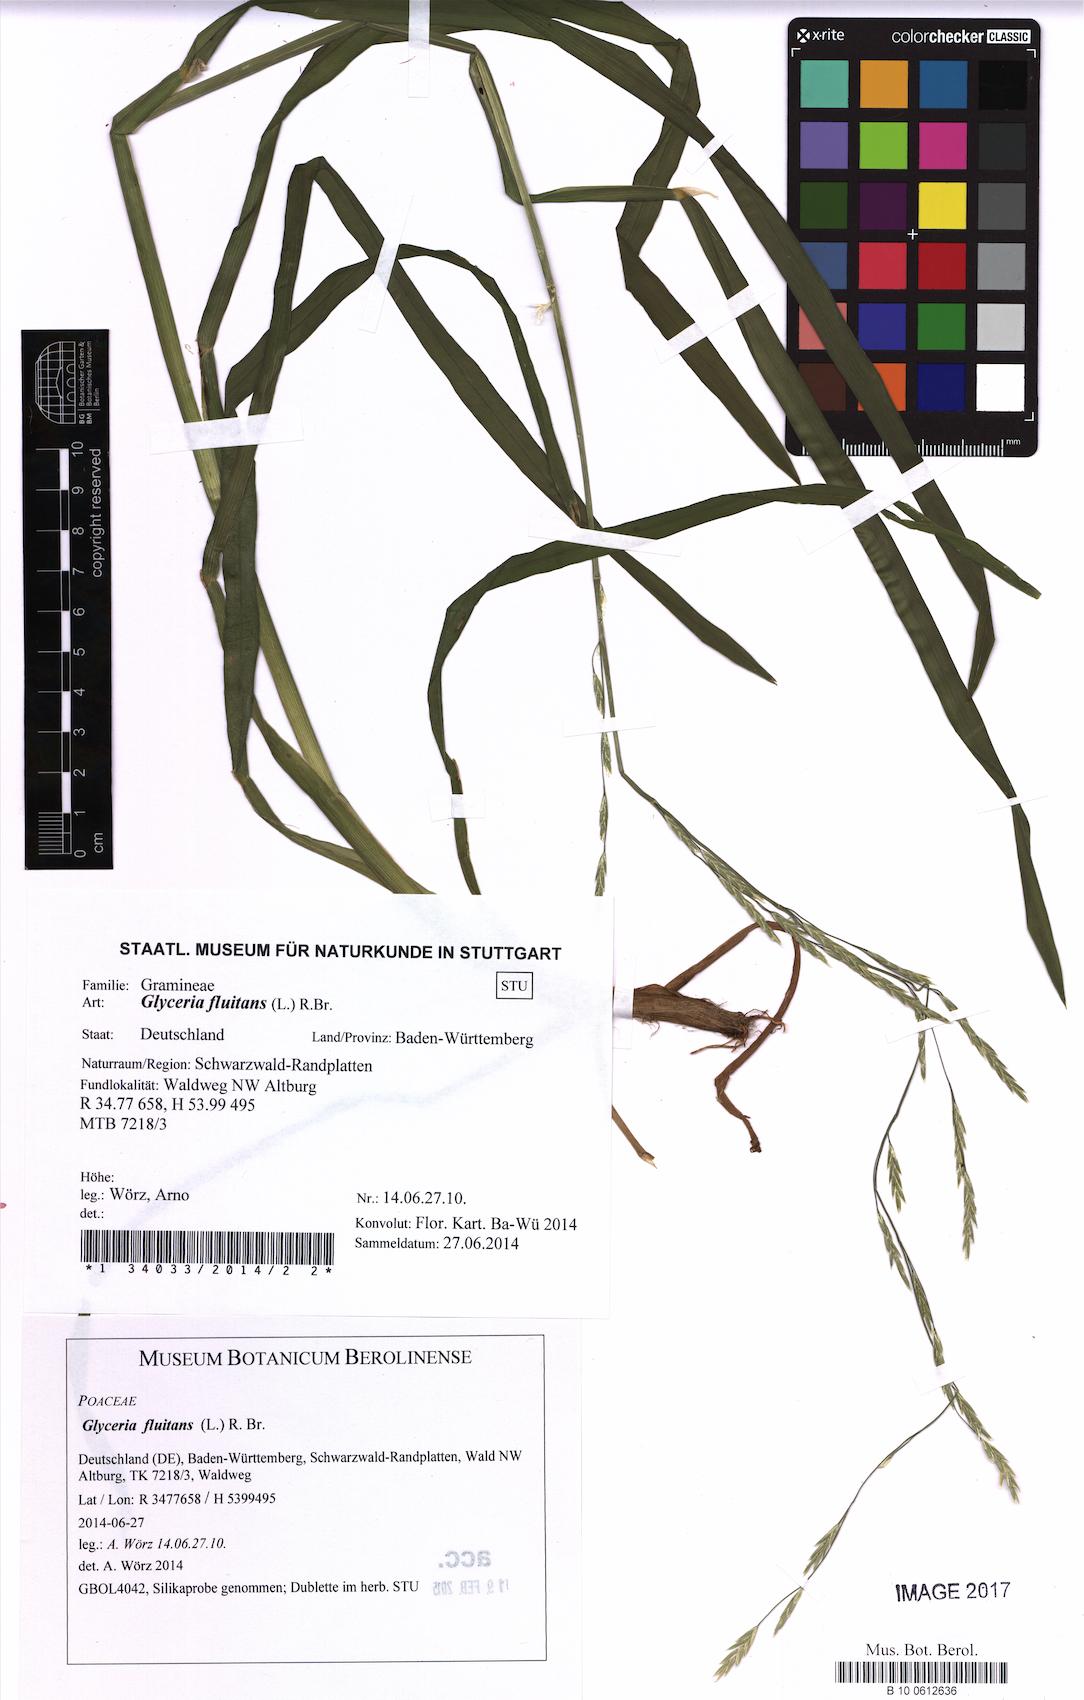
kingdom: Plantae
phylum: Tracheophyta
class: Liliopsida
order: Poales
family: Poaceae
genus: Glyceria
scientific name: Glyceria fluitans
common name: Floating sweet-grass
